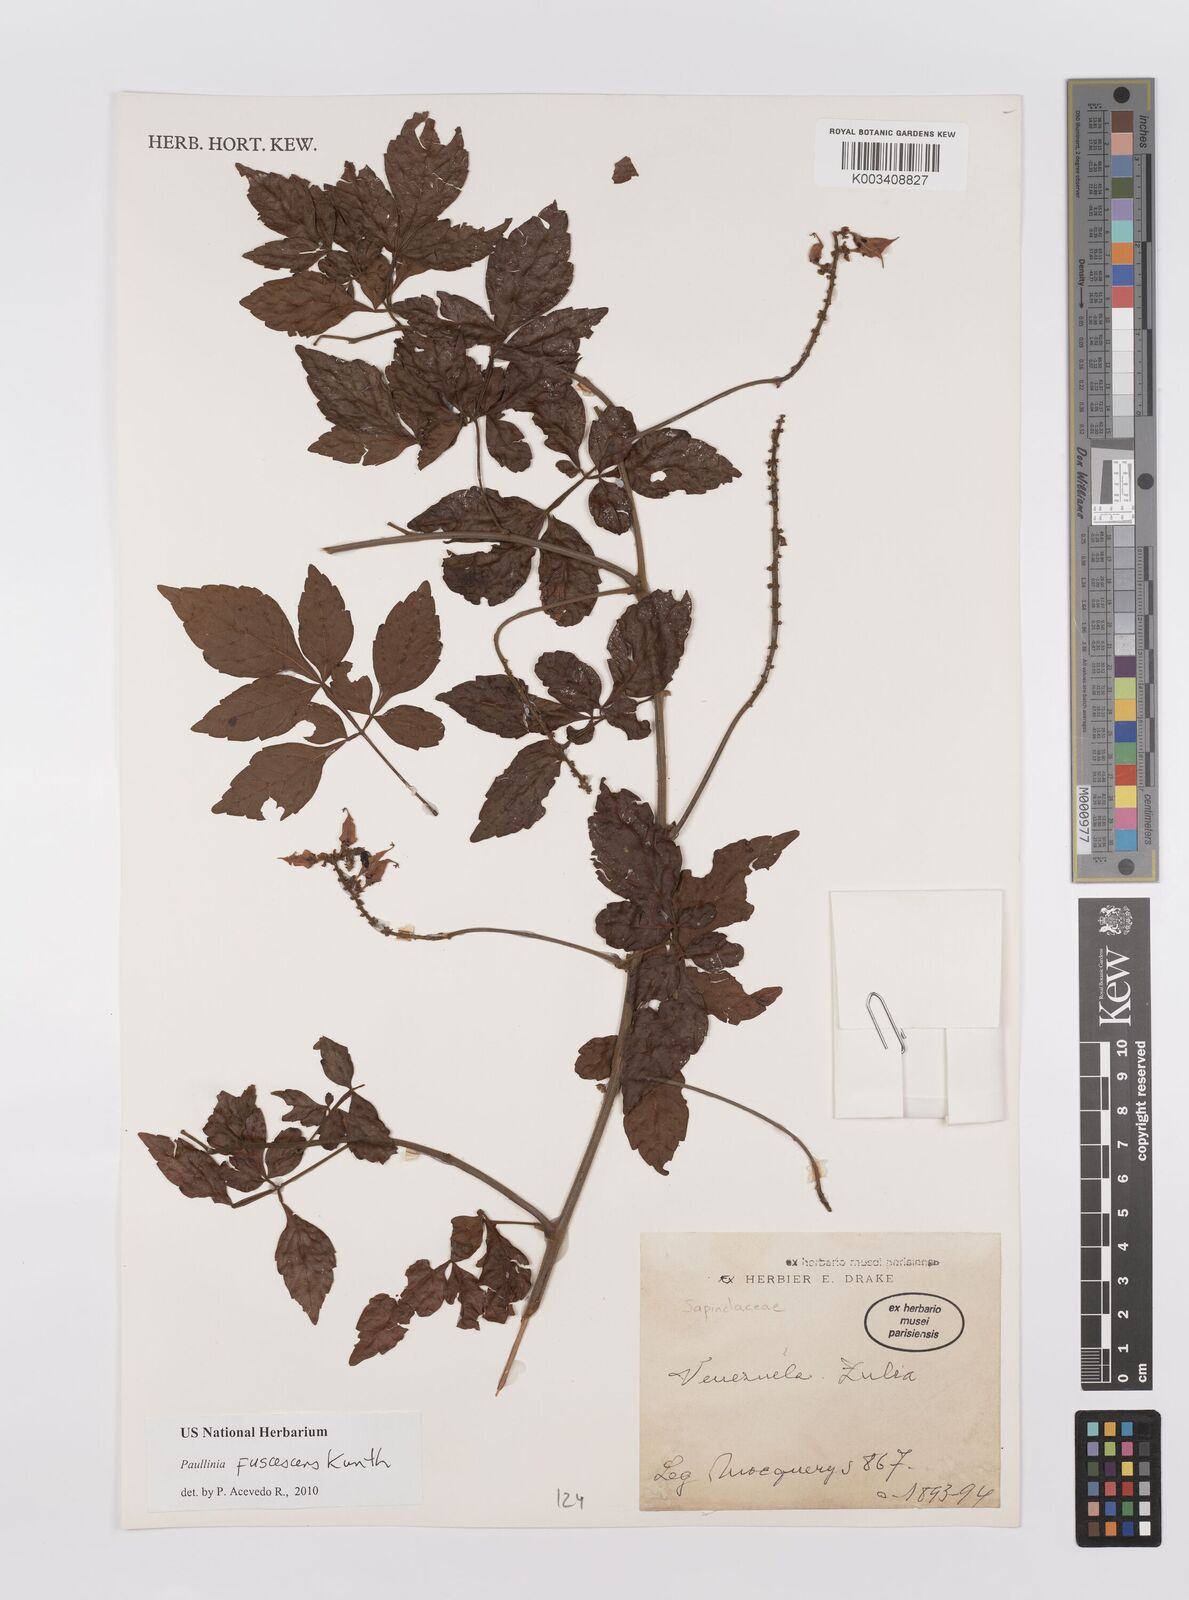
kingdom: Plantae
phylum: Tracheophyta
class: Magnoliopsida
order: Sapindales
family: Sapindaceae
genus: Paullinia
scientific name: Paullinia fuscescens
